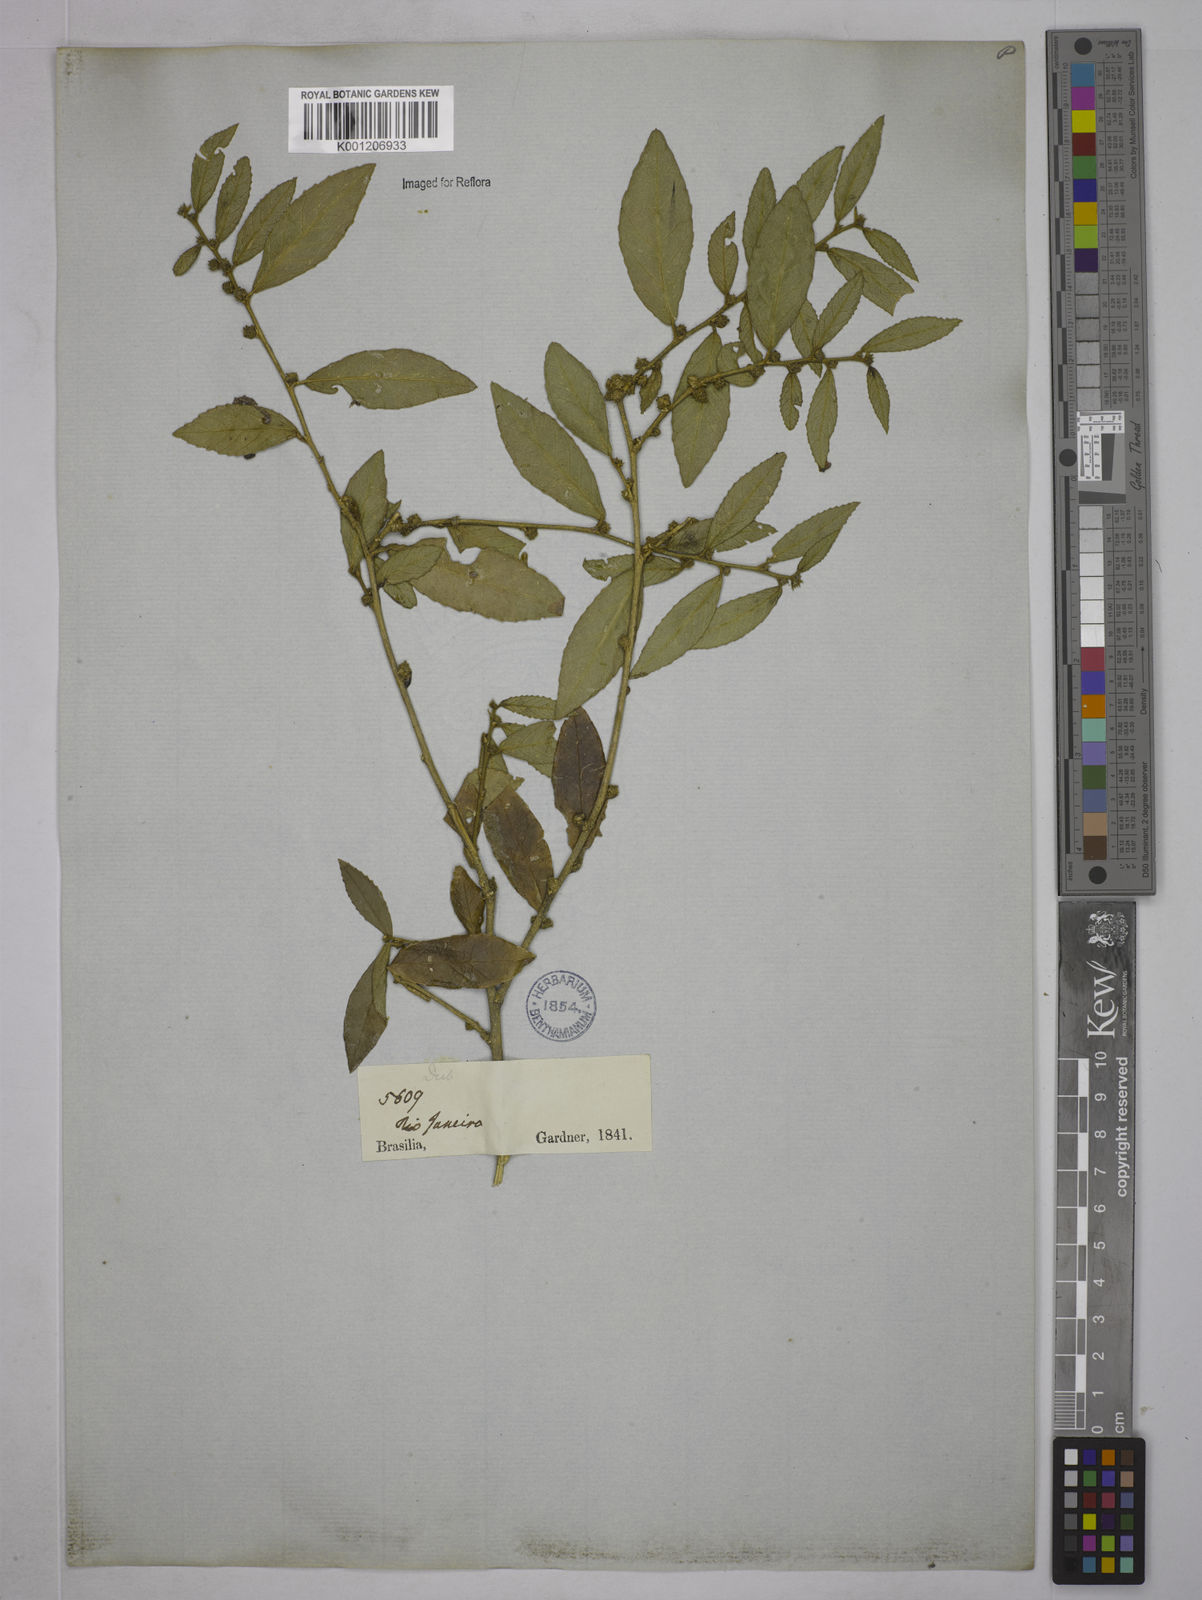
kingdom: Plantae
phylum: Tracheophyta
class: Magnoliopsida
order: Malpighiales
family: Euphorbiaceae
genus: Bernardia
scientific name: Bernardia axillaris
